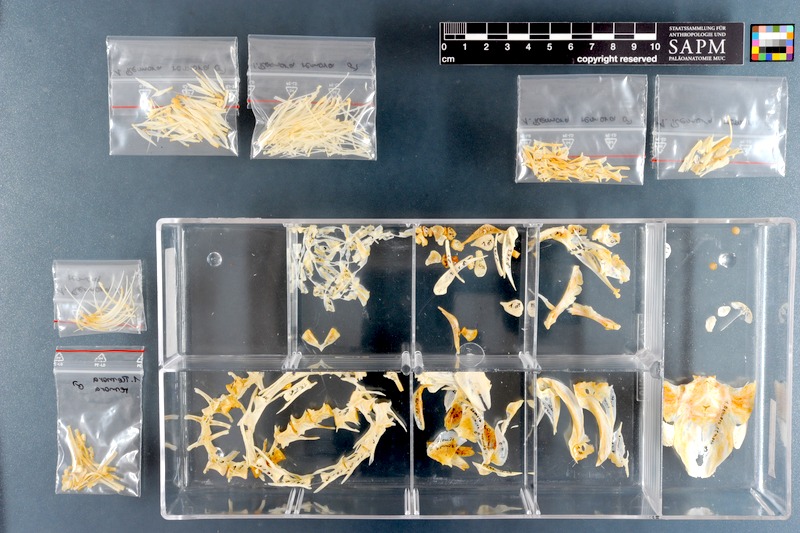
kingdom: Animalia
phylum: Chordata
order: Perciformes
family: Echeneidae
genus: Remora
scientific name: Remora remora
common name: Remora
